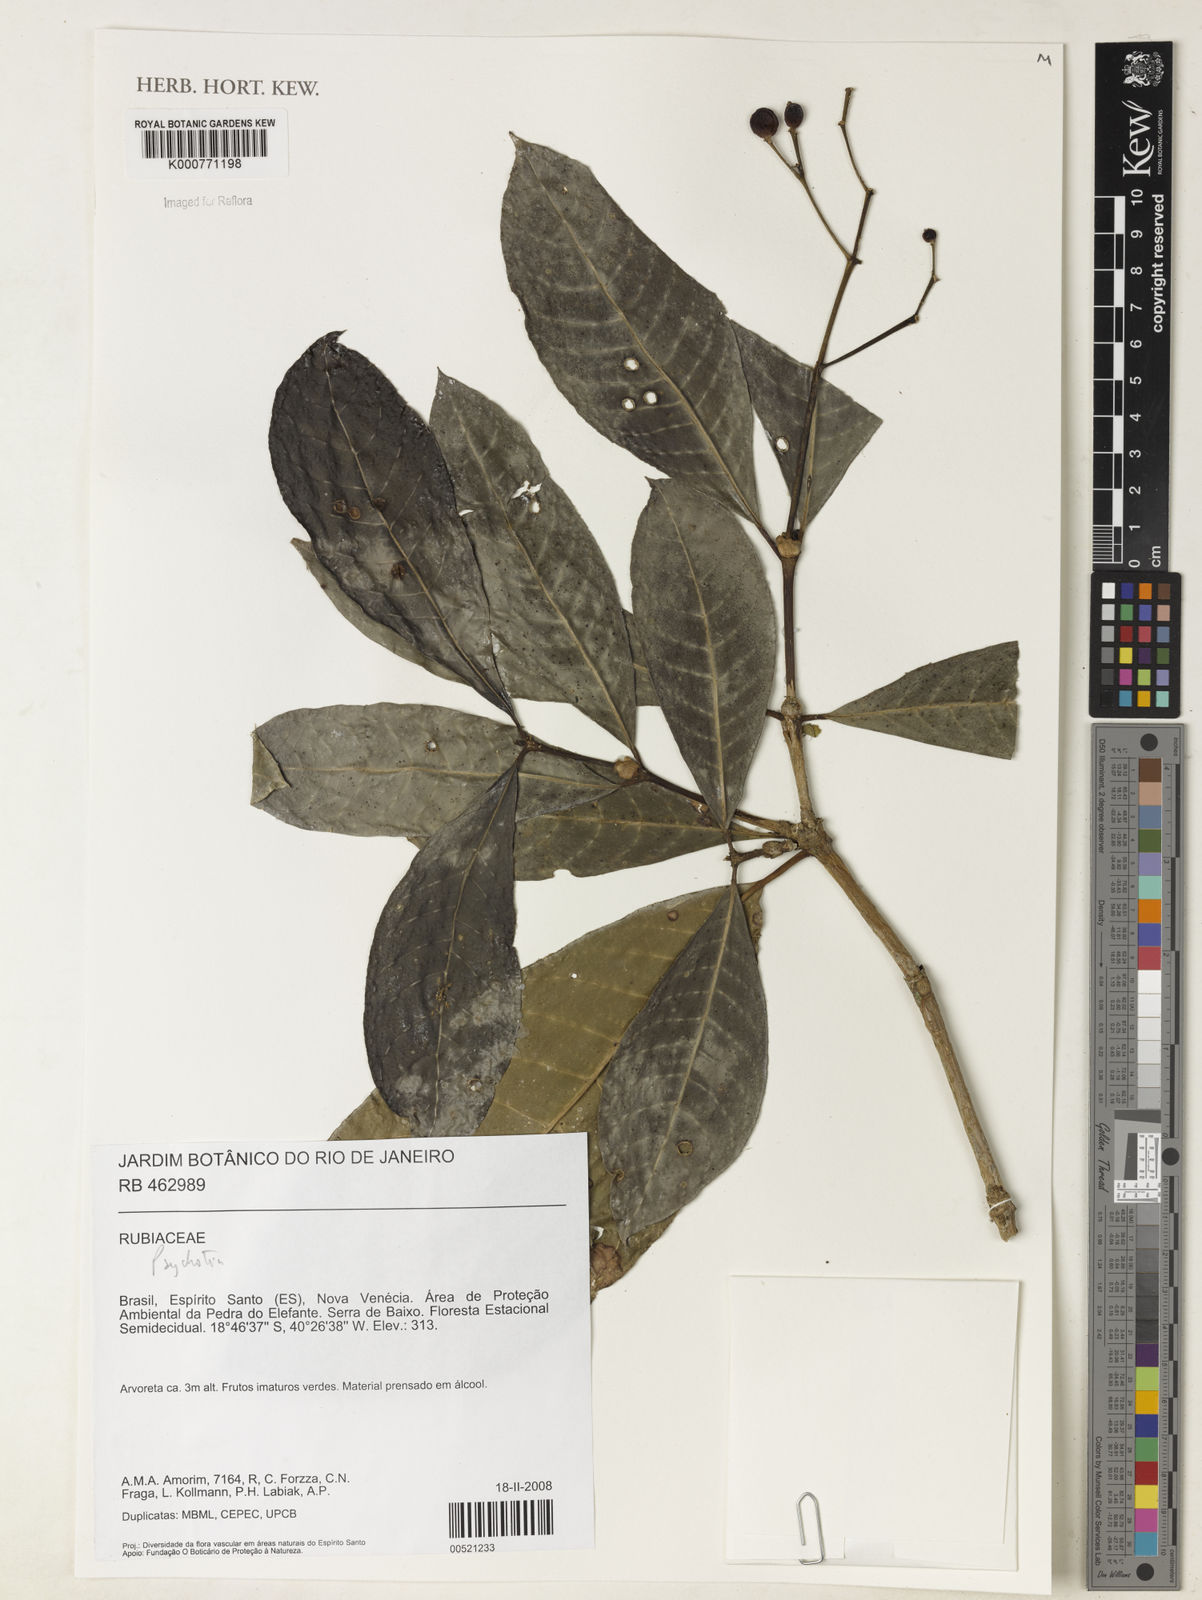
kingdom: Plantae
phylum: Tracheophyta
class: Magnoliopsida
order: Gentianales
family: Rubiaceae
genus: Psychotria
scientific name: Psychotria
